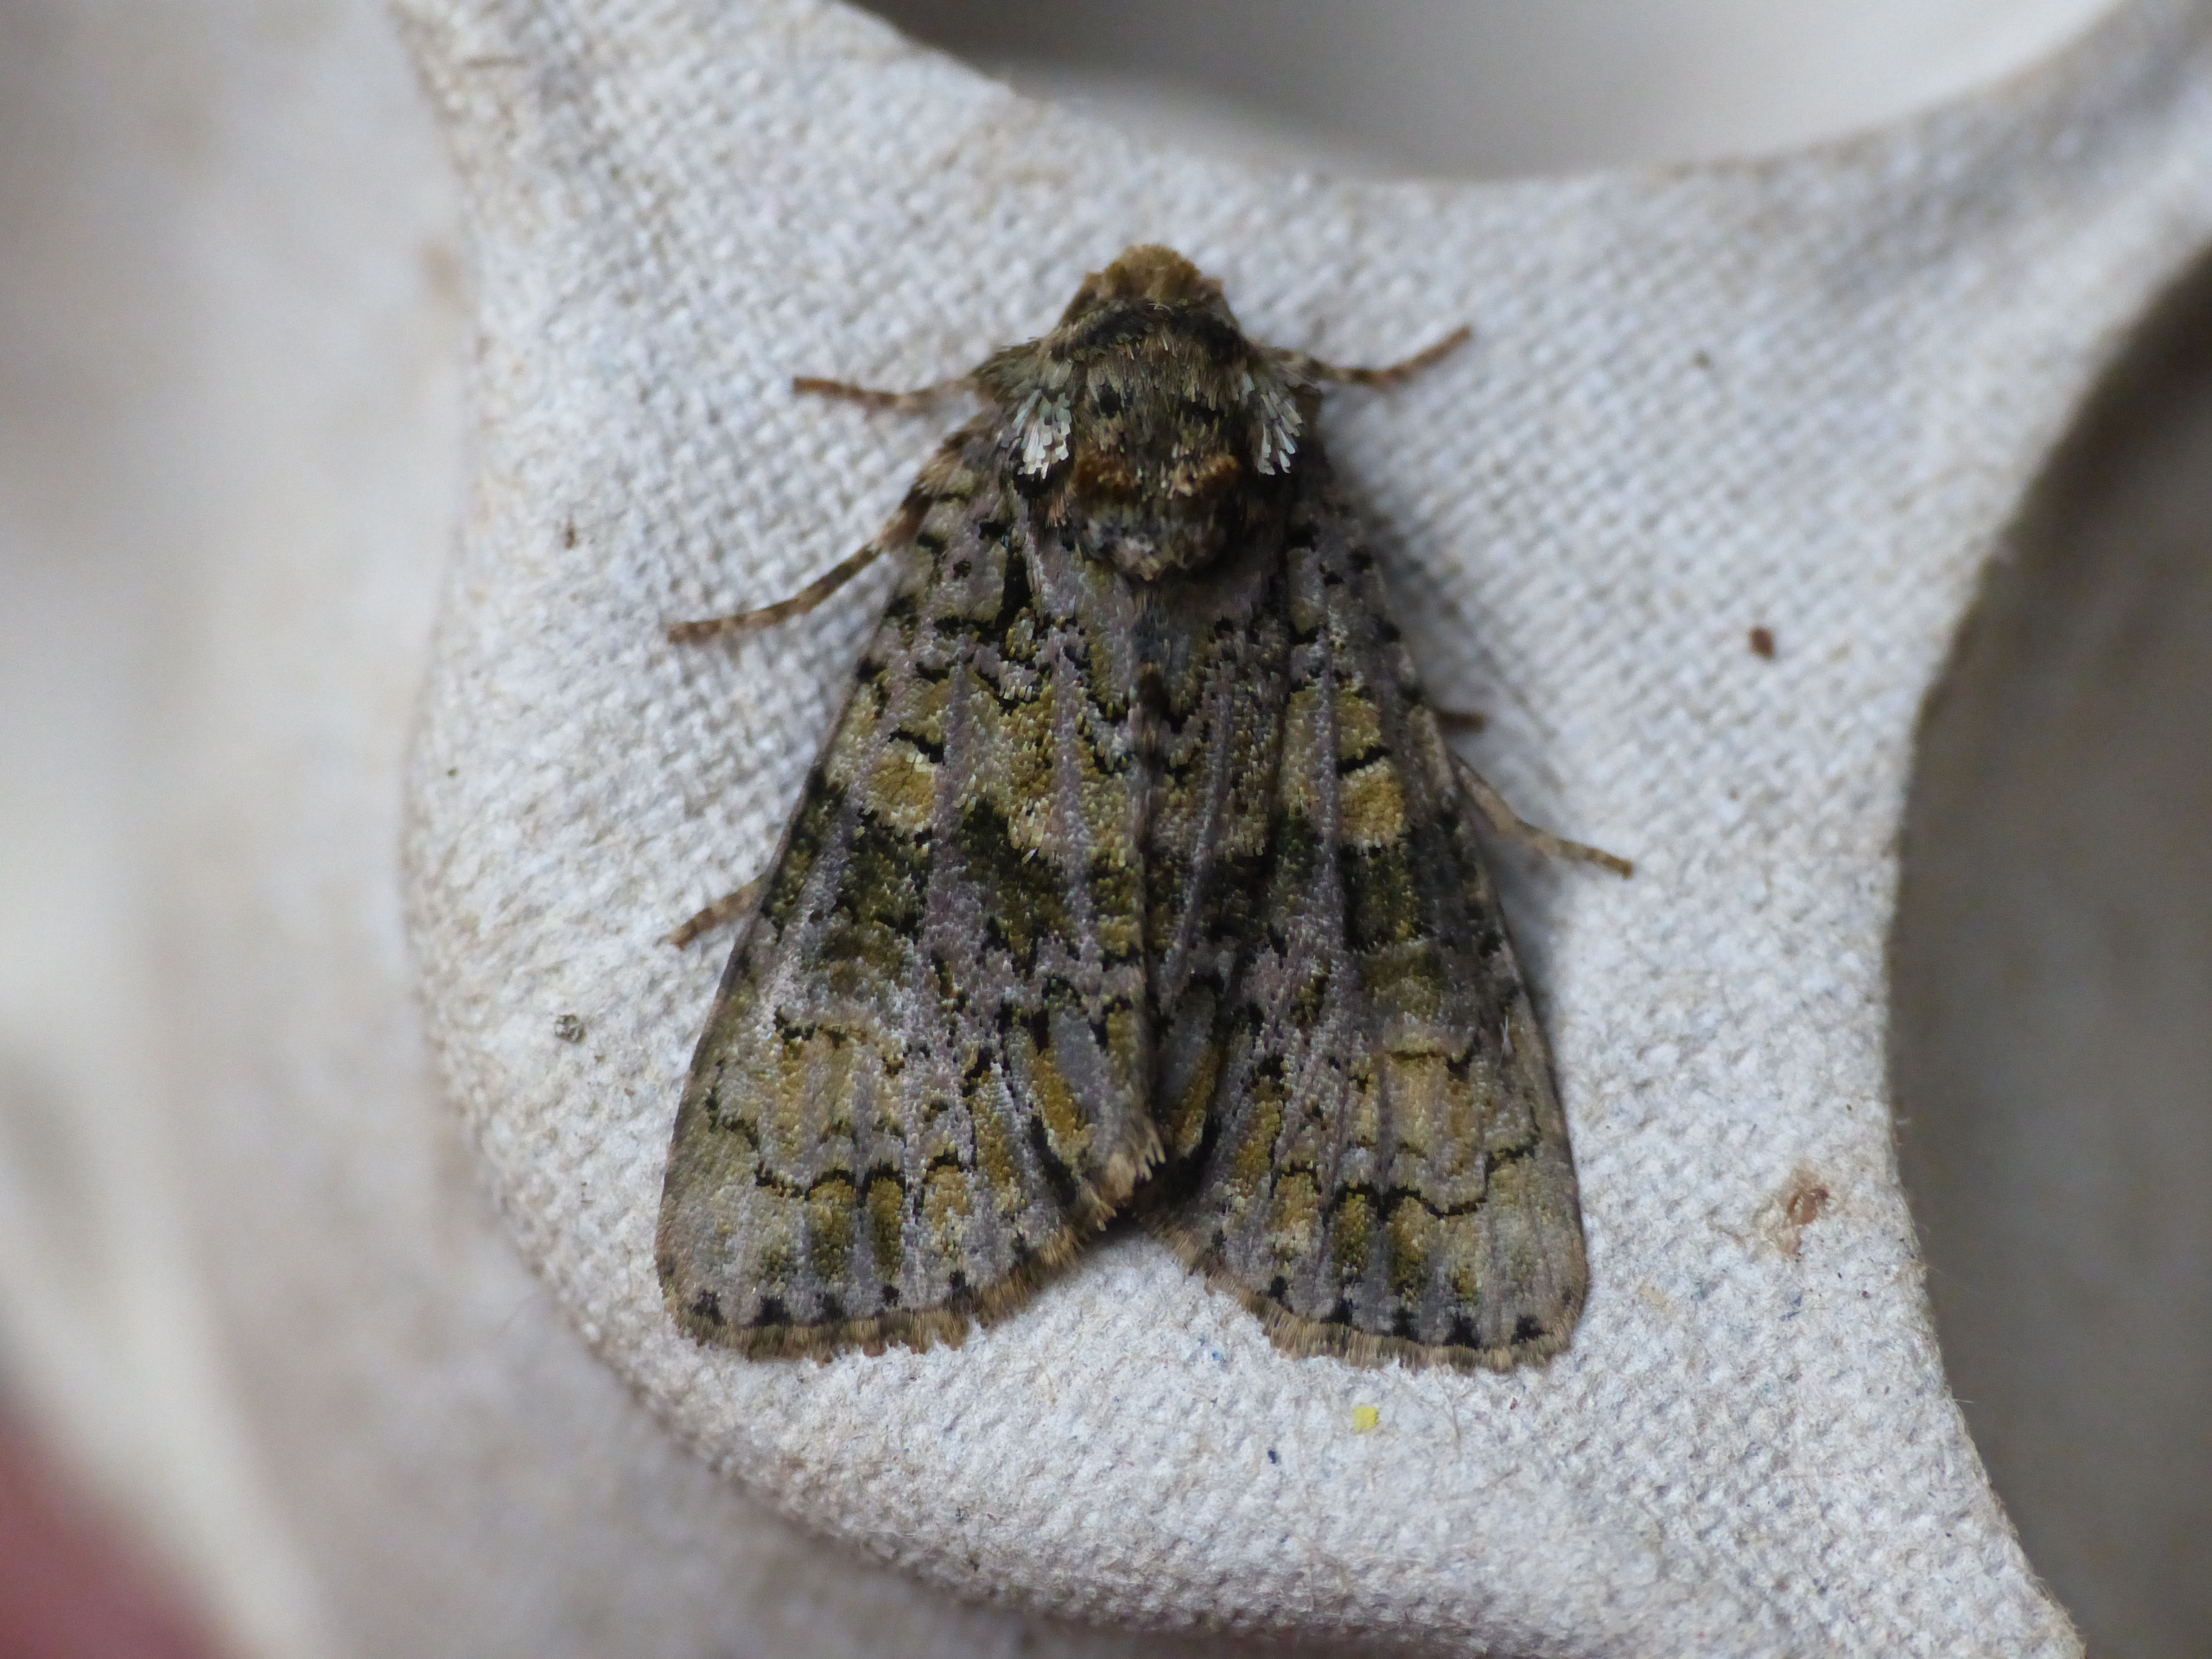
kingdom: Animalia
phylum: Arthropoda
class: Insecta
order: Lepidoptera
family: Noctuidae
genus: Craniophora
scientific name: Craniophora ligustri
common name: Askeugle
